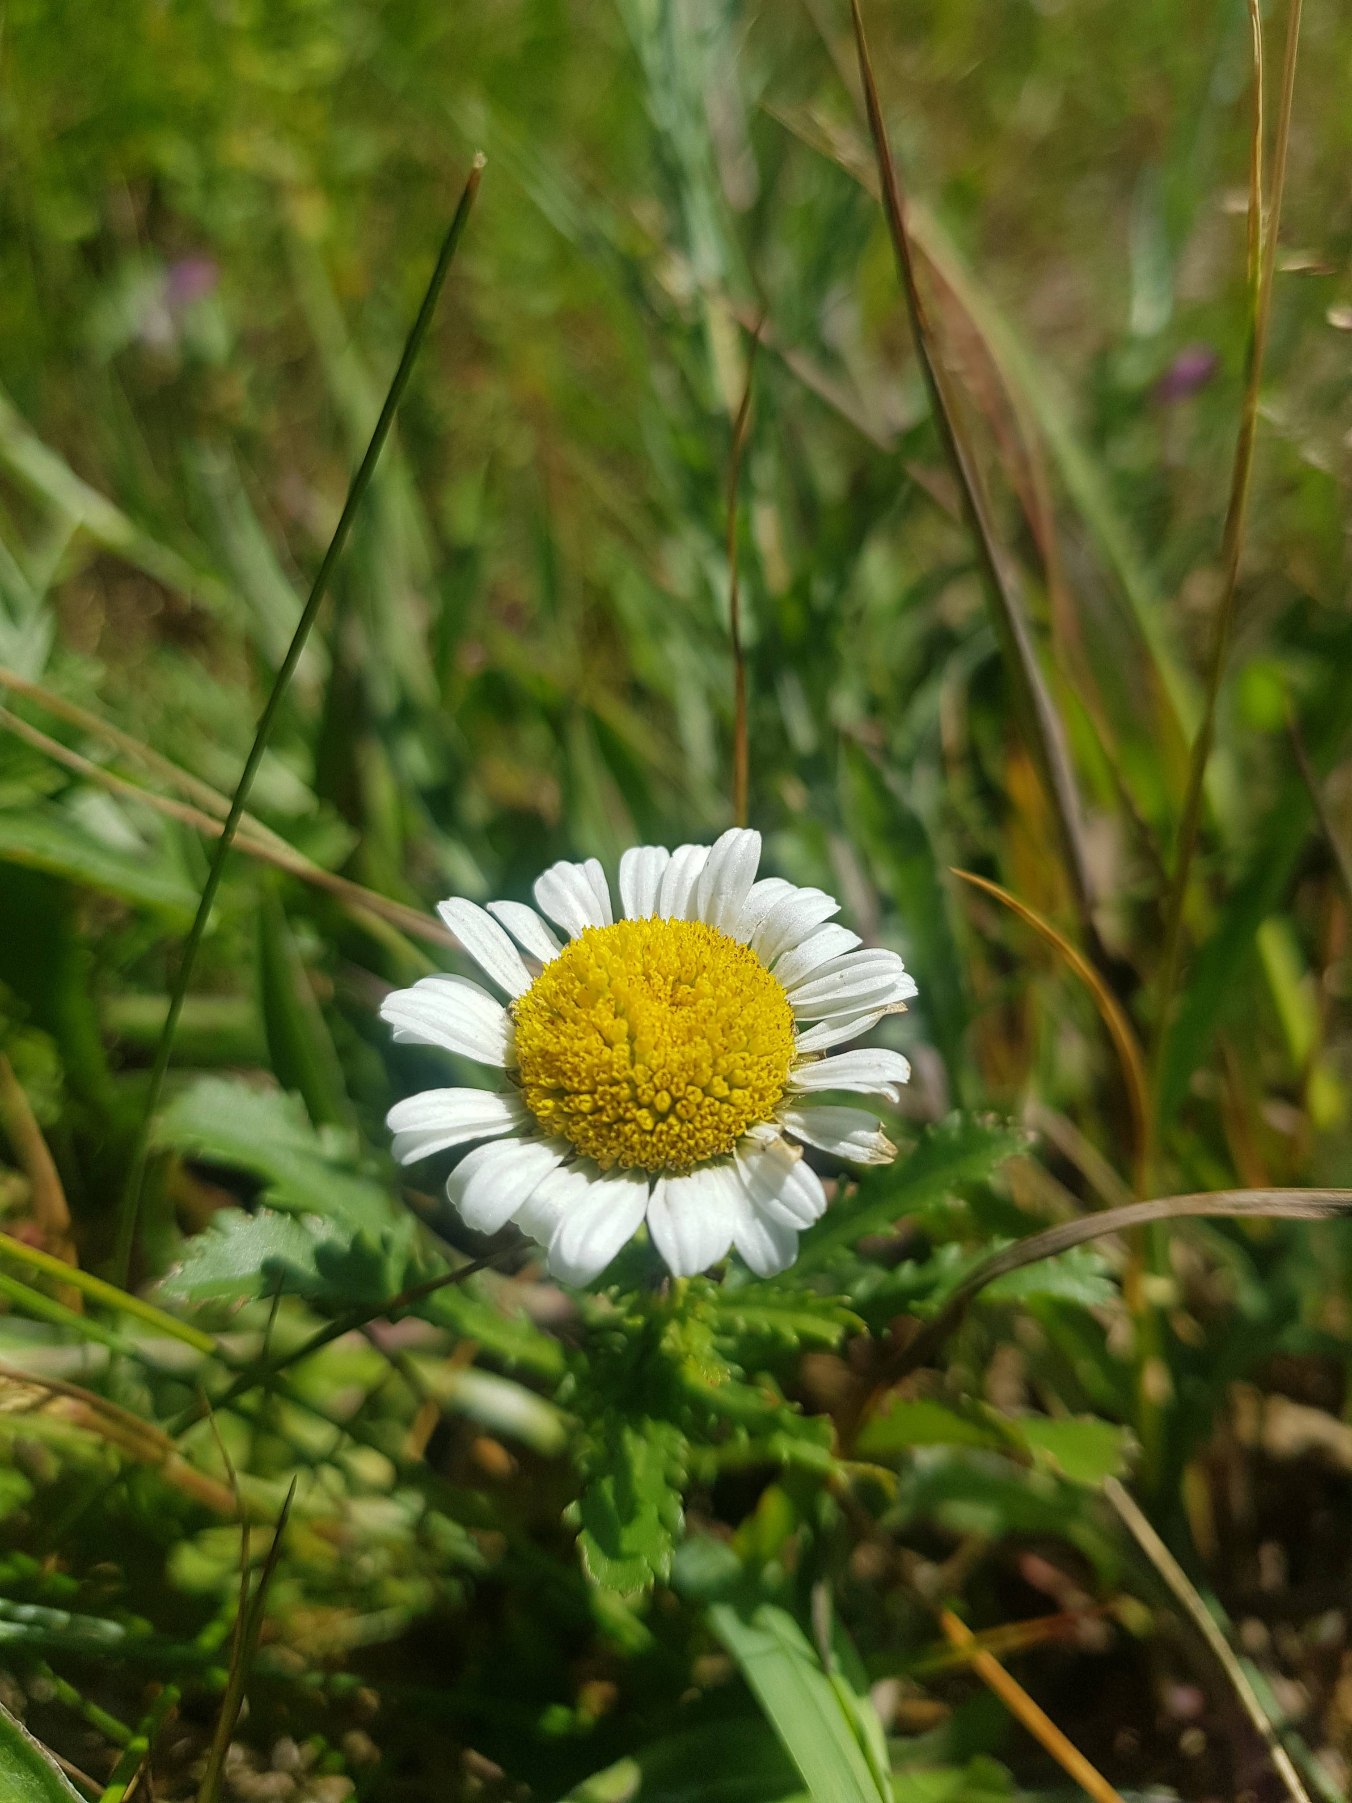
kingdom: Plantae
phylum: Tracheophyta
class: Magnoliopsida
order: Asterales
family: Asteraceae
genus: Leucanthemum
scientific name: Leucanthemum vulgare
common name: Hvid okseøje
